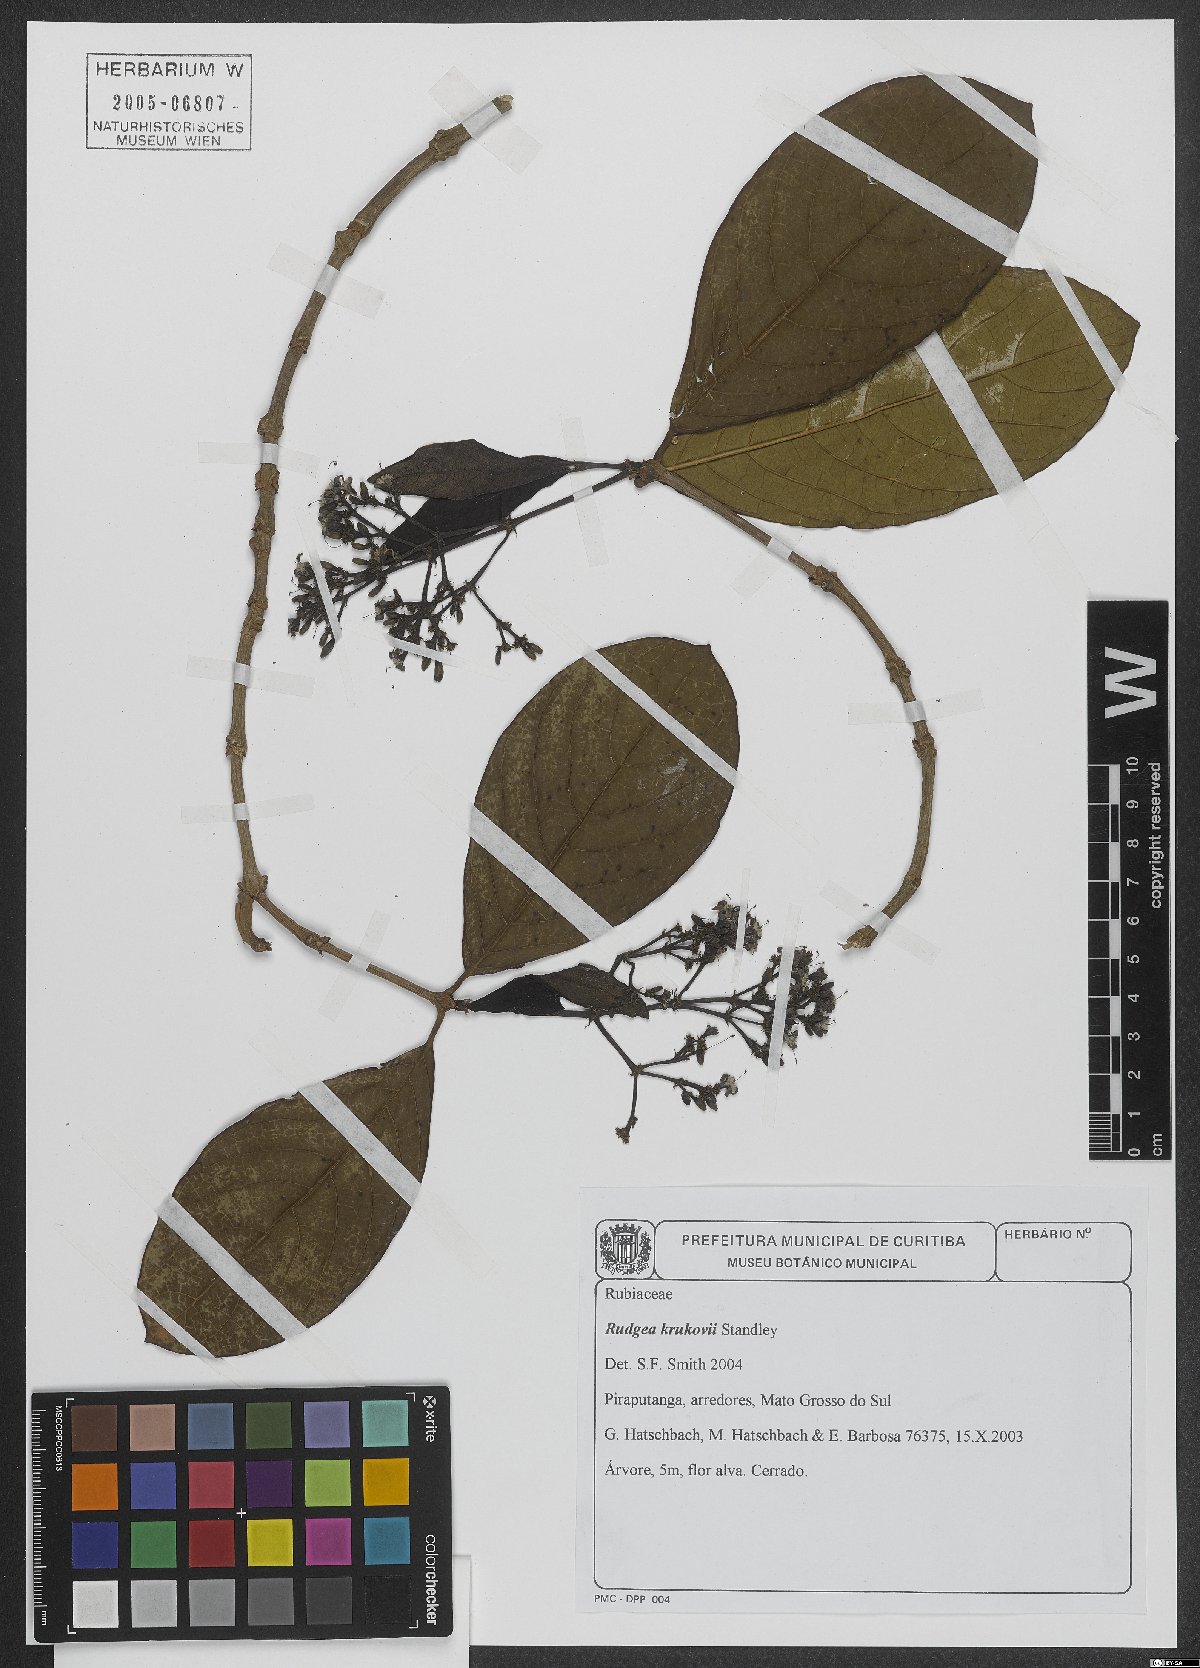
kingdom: Plantae
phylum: Tracheophyta
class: Magnoliopsida
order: Gentianales
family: Rubiaceae
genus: Rudgea
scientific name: Rudgea viburnoides
